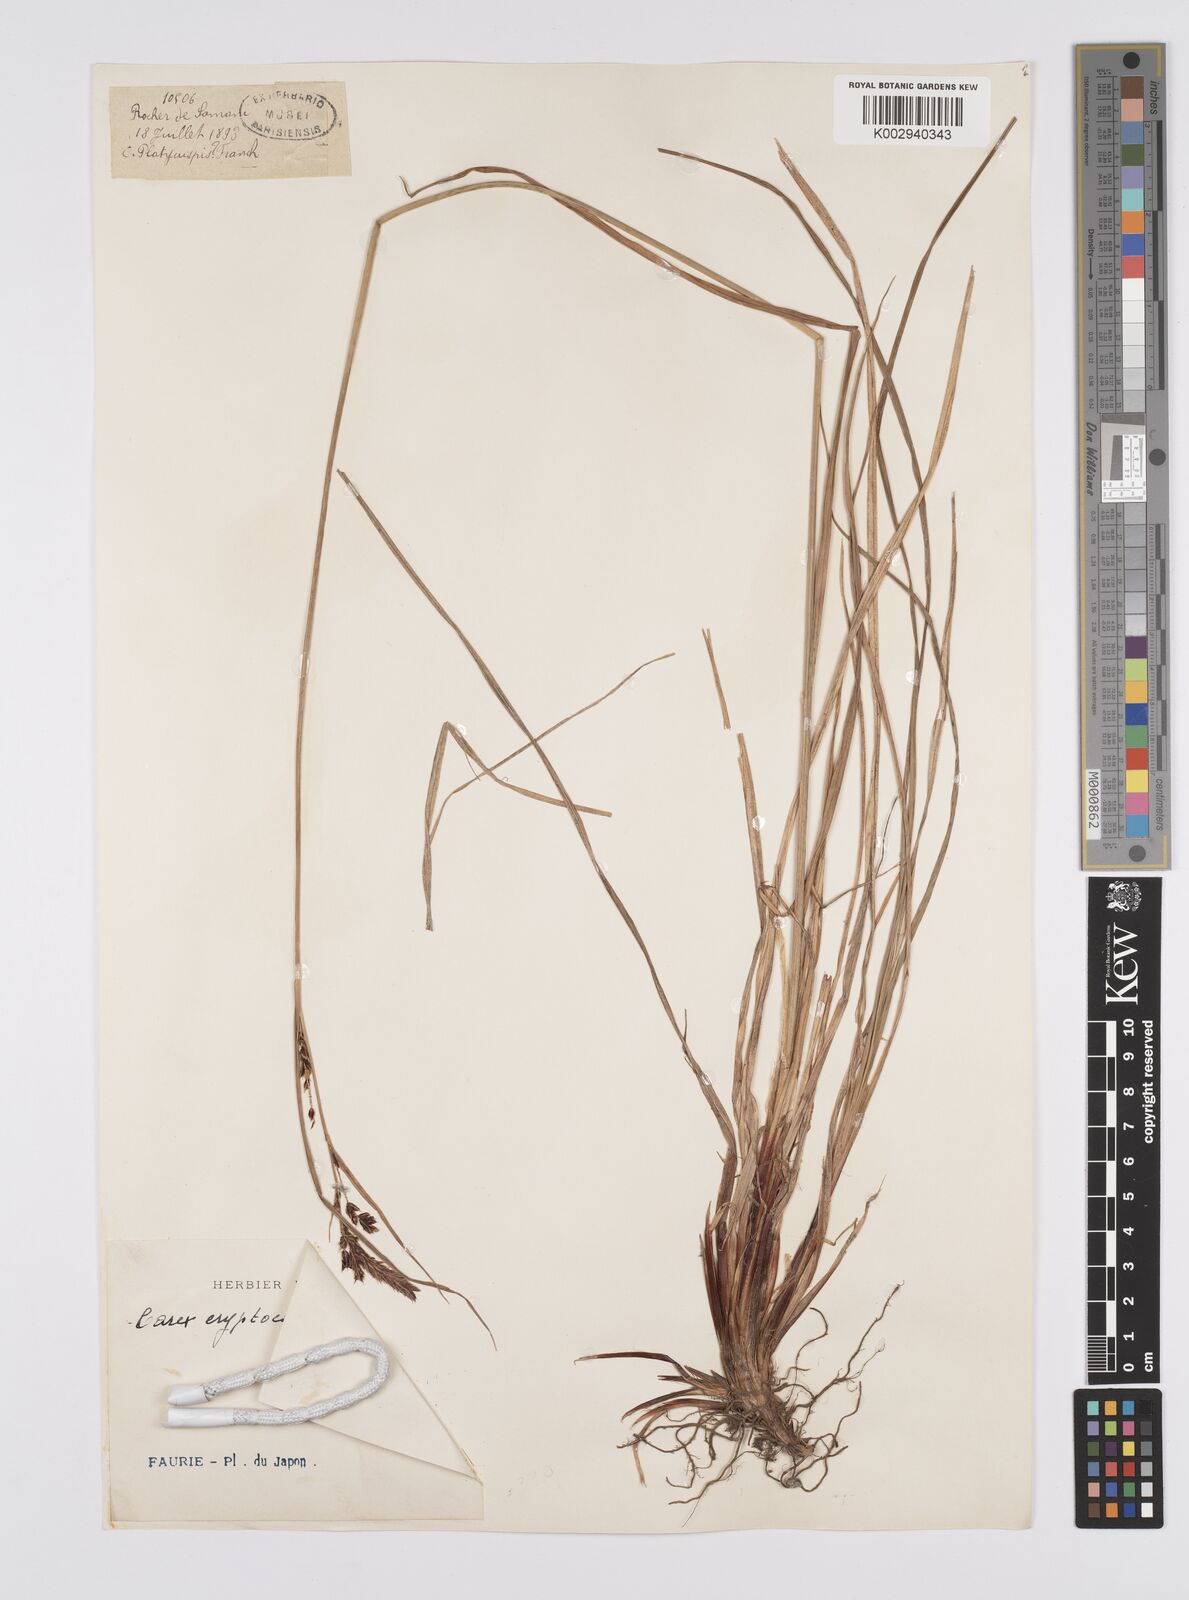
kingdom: Plantae
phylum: Tracheophyta
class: Liliopsida
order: Poales
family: Cyperaceae
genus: Carex
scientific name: Carex lyngbyei
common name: Lyngbye's sedge
